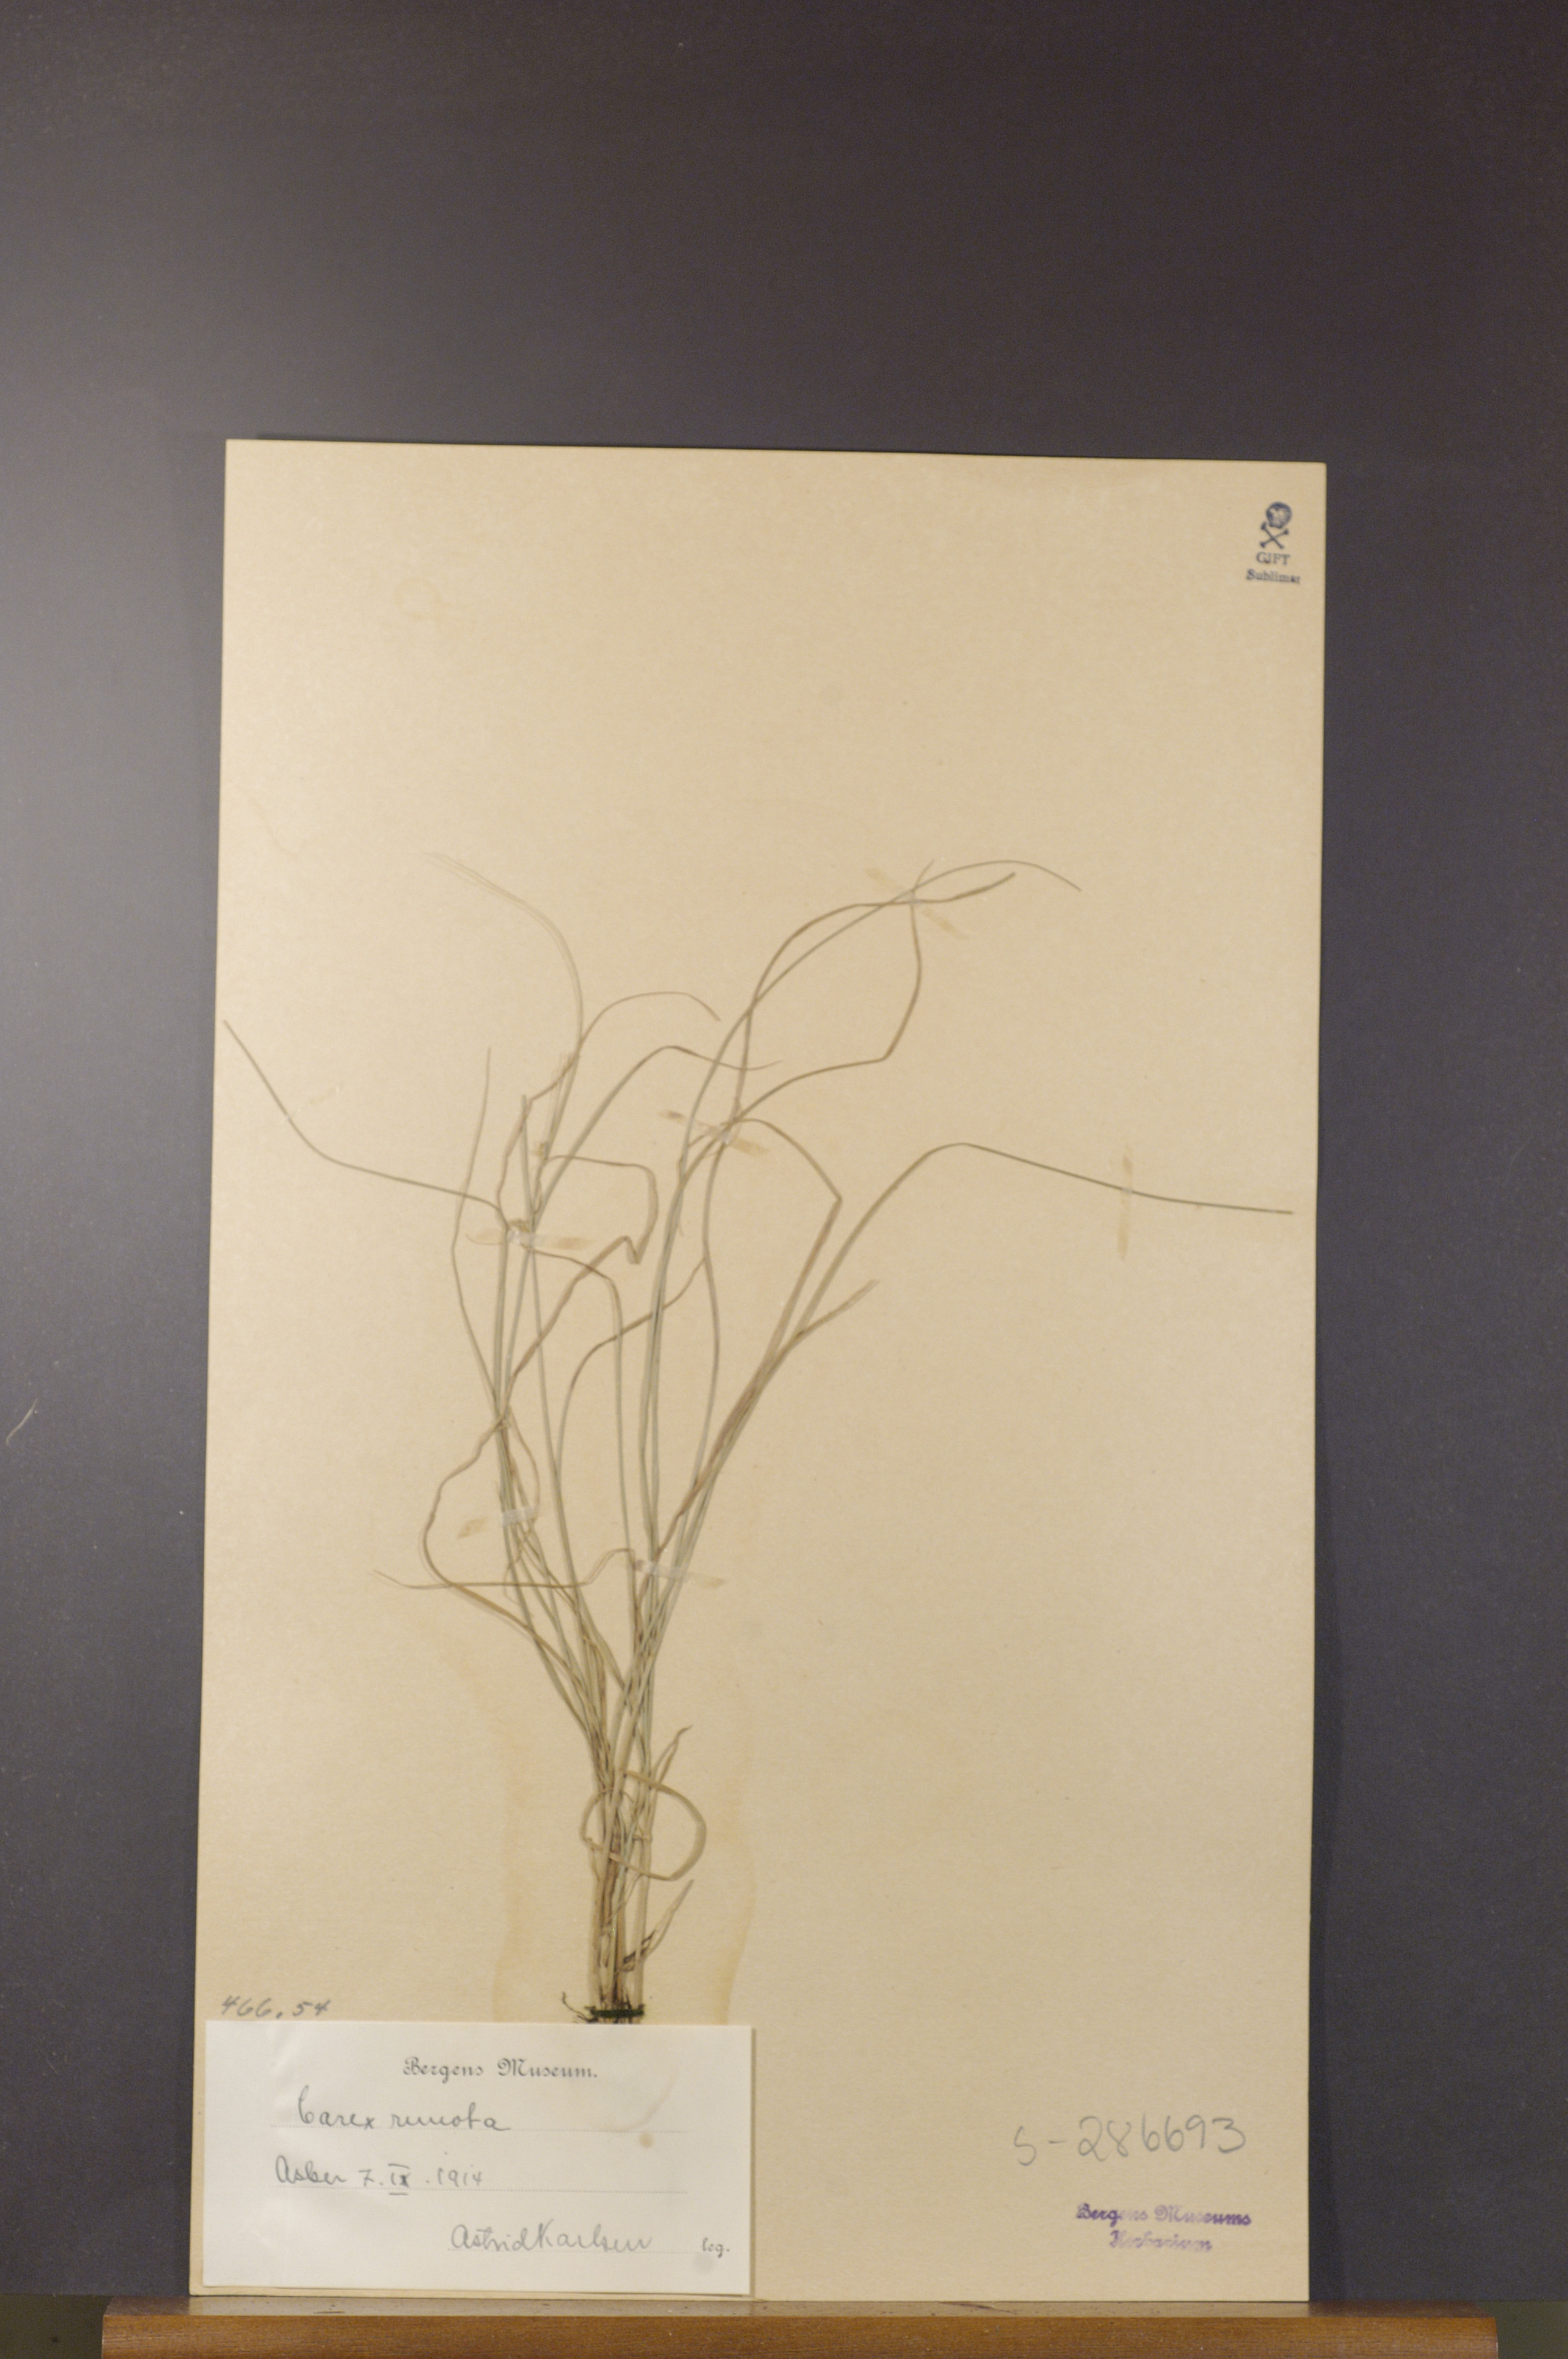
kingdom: Plantae
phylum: Tracheophyta
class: Liliopsida
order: Poales
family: Cyperaceae
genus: Carex
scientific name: Carex remota
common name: Remote sedge
